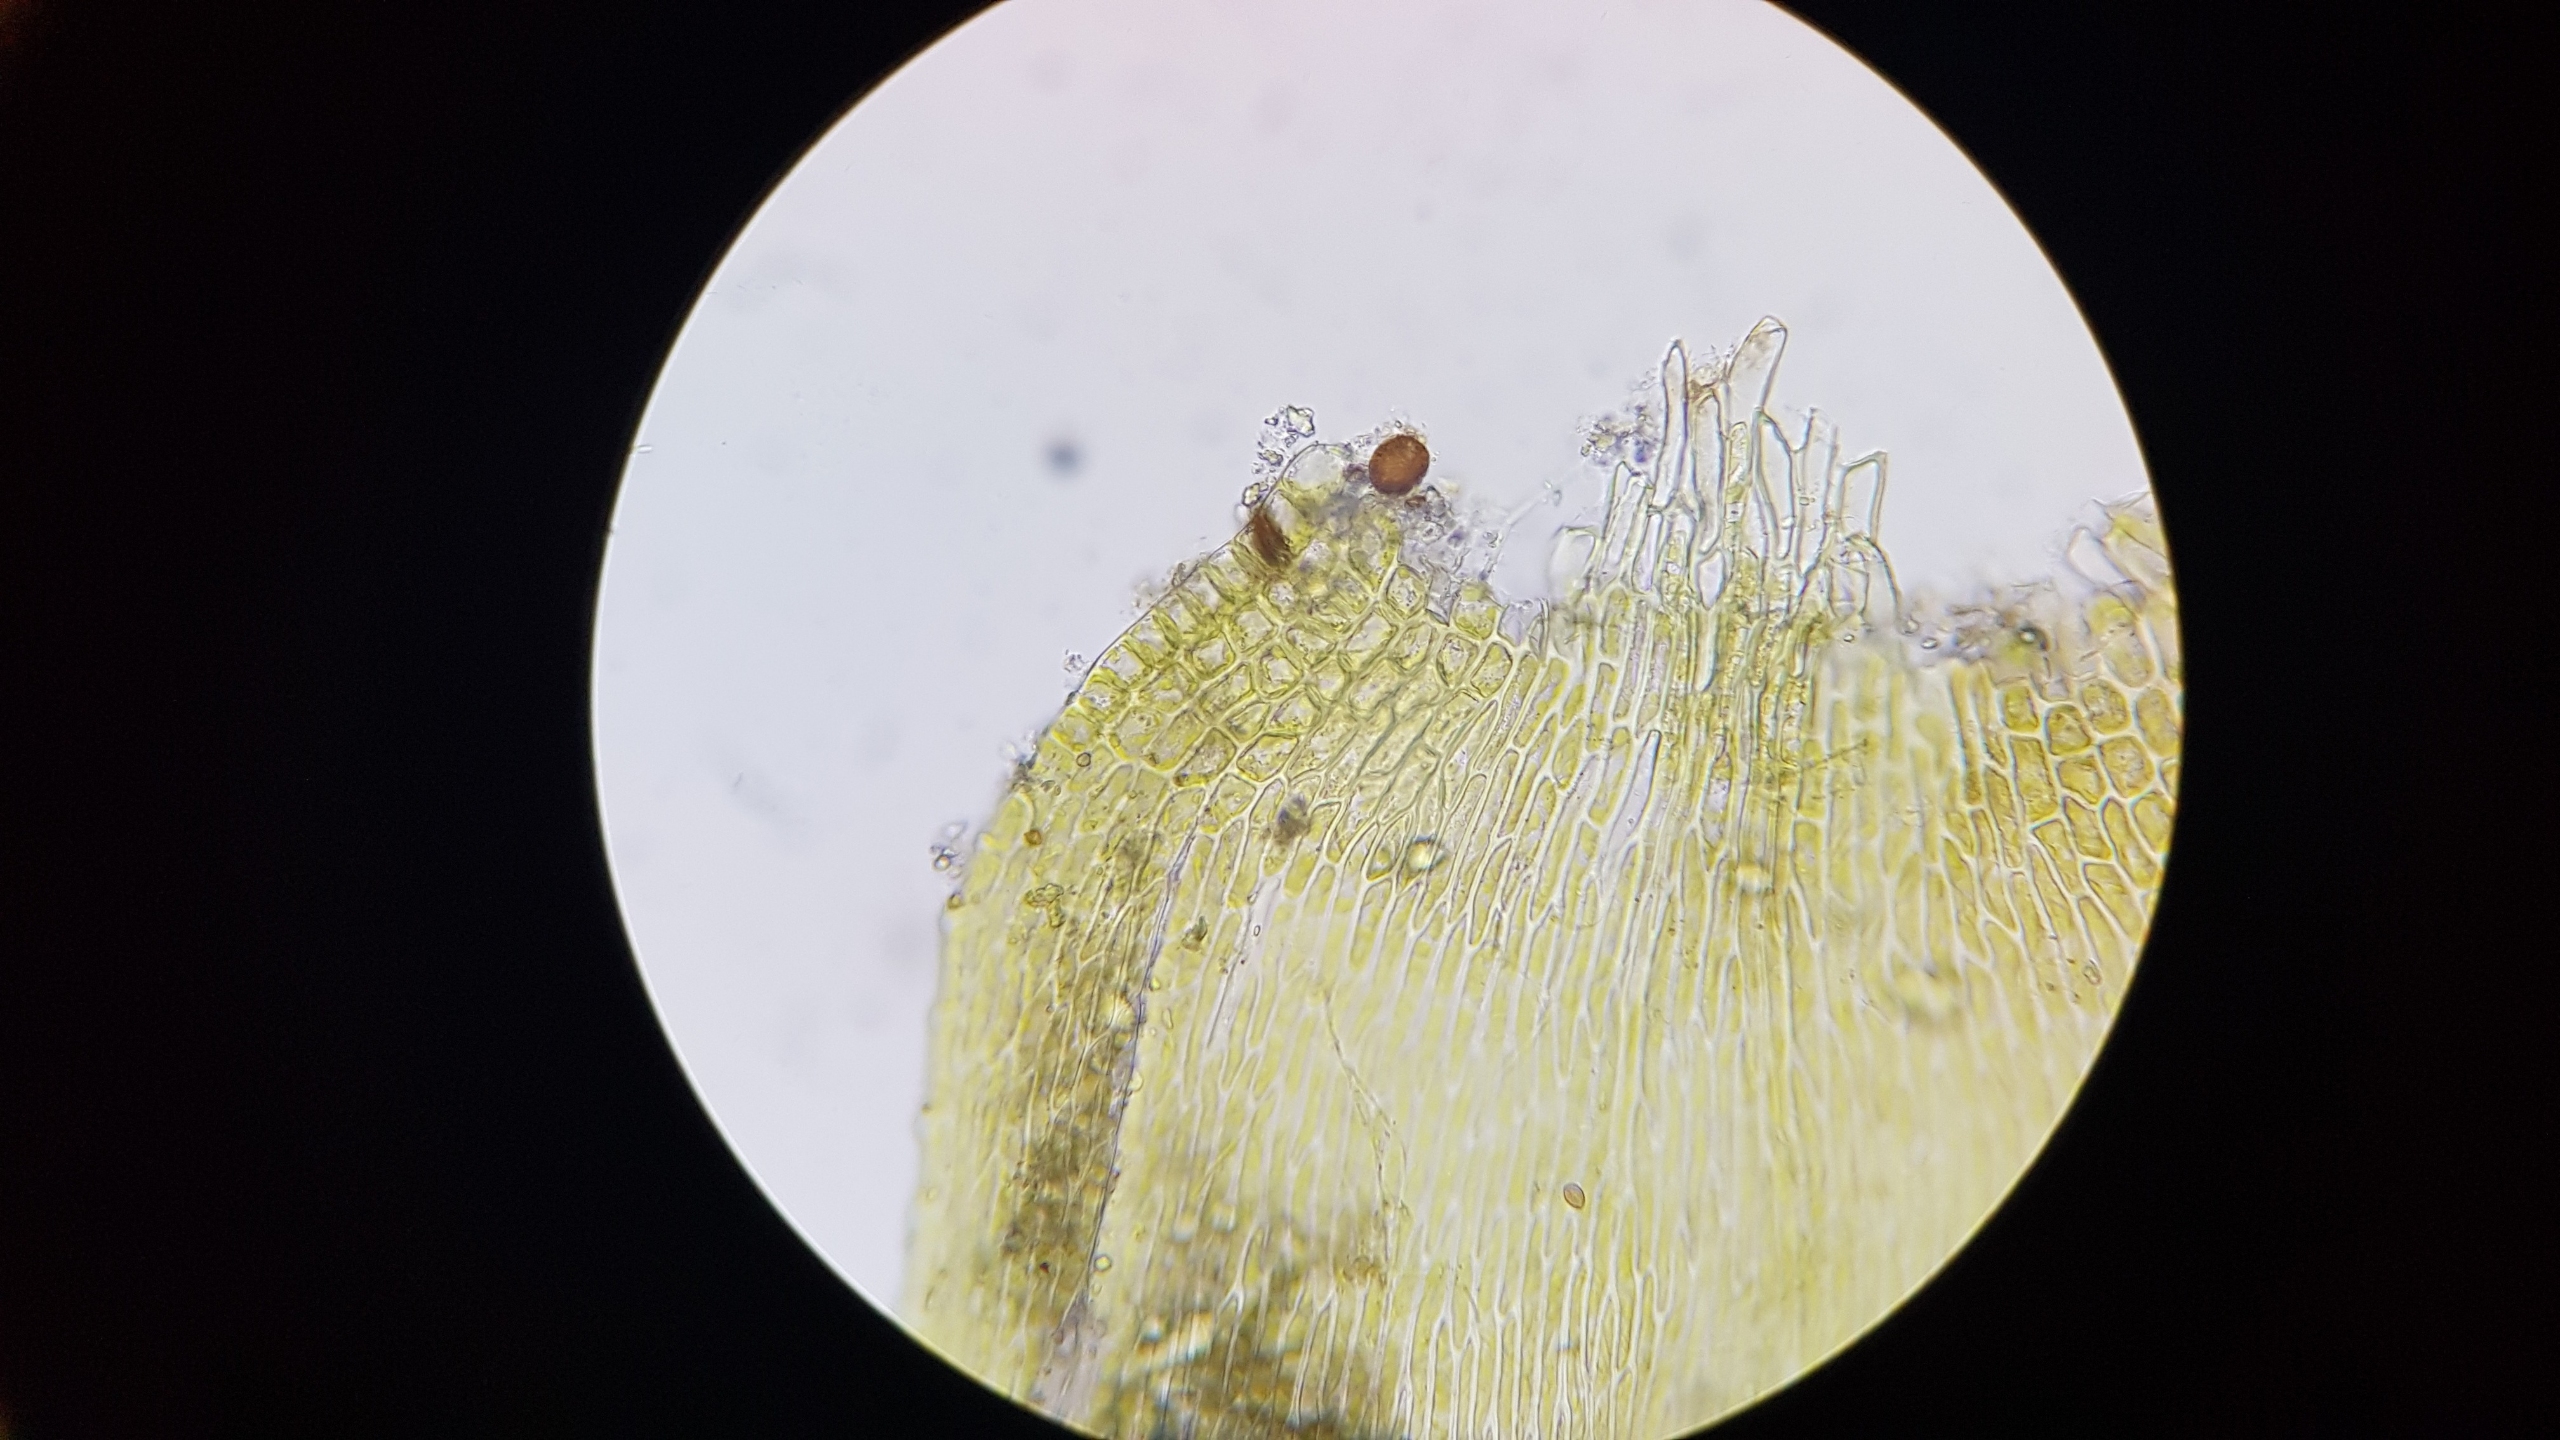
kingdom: Plantae
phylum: Bryophyta
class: Bryopsida
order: Hypnales
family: Pylaisiaceae
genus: Pylaisia
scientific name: Pylaisia polyantha
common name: Mangefrugtet aspemos
